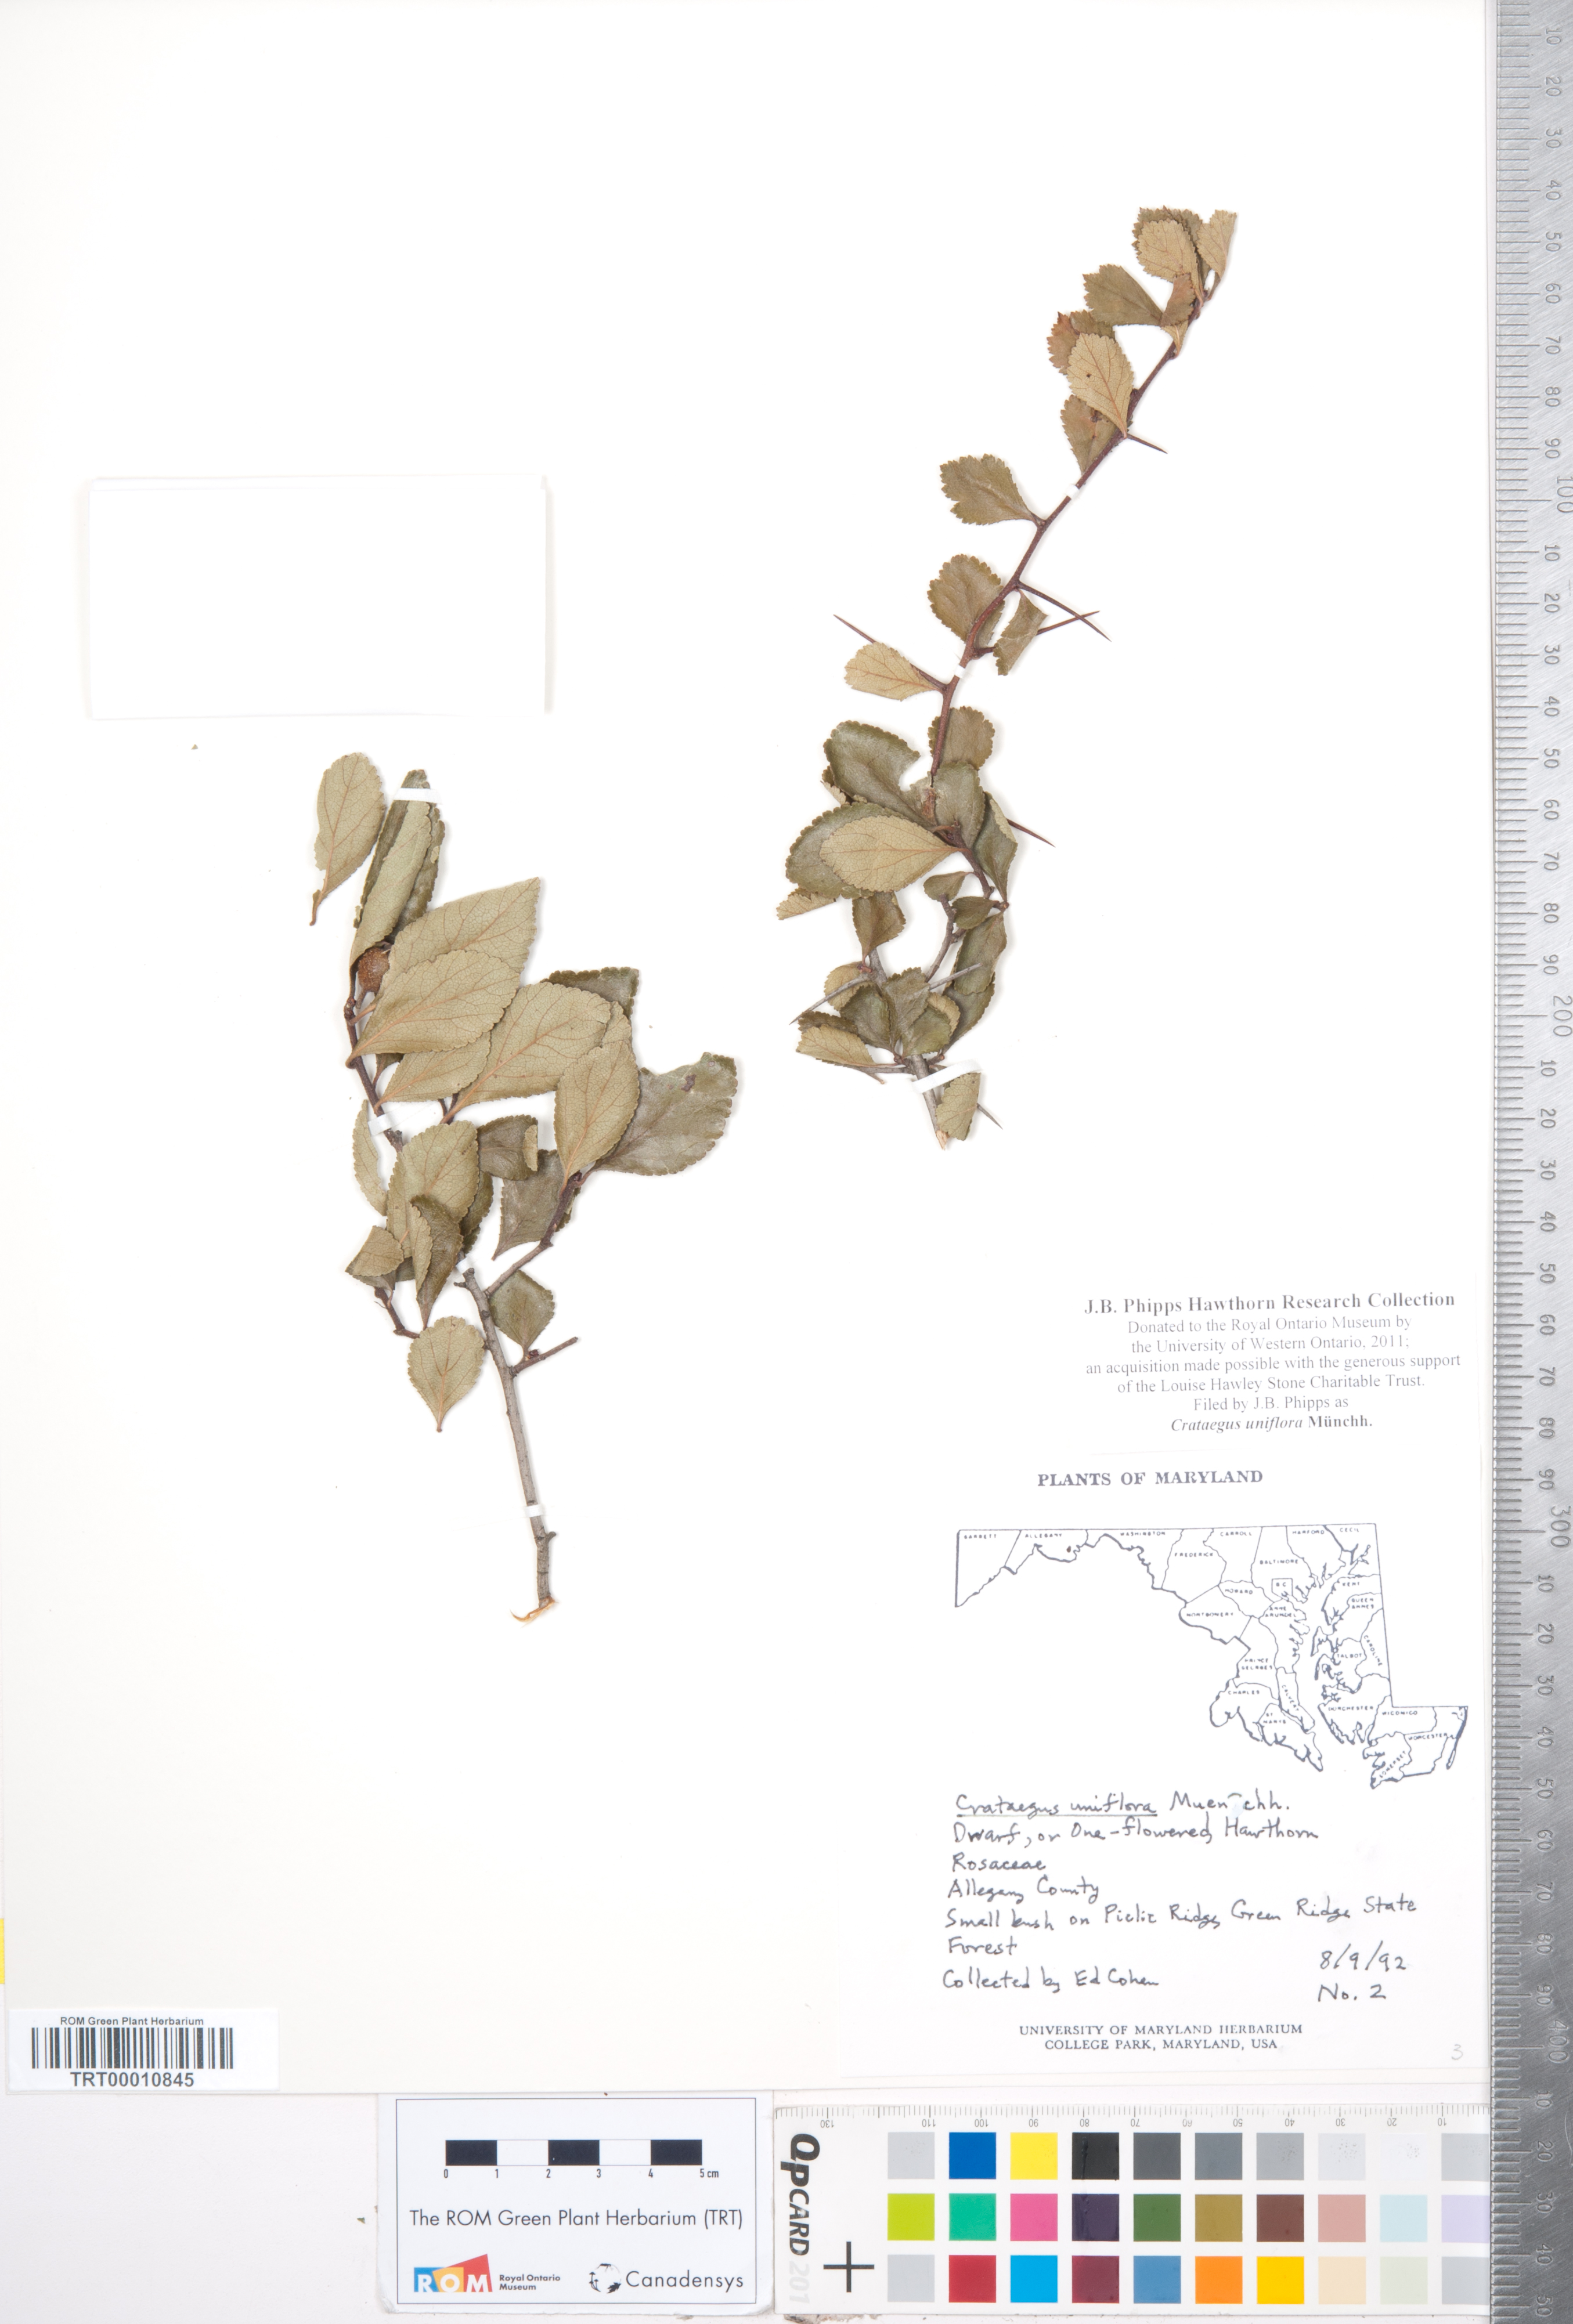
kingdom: Plantae
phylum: Tracheophyta
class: Magnoliopsida
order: Rosales
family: Rosaceae
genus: Crataegus
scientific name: Crataegus uniflora
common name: One-flower hawthorn
